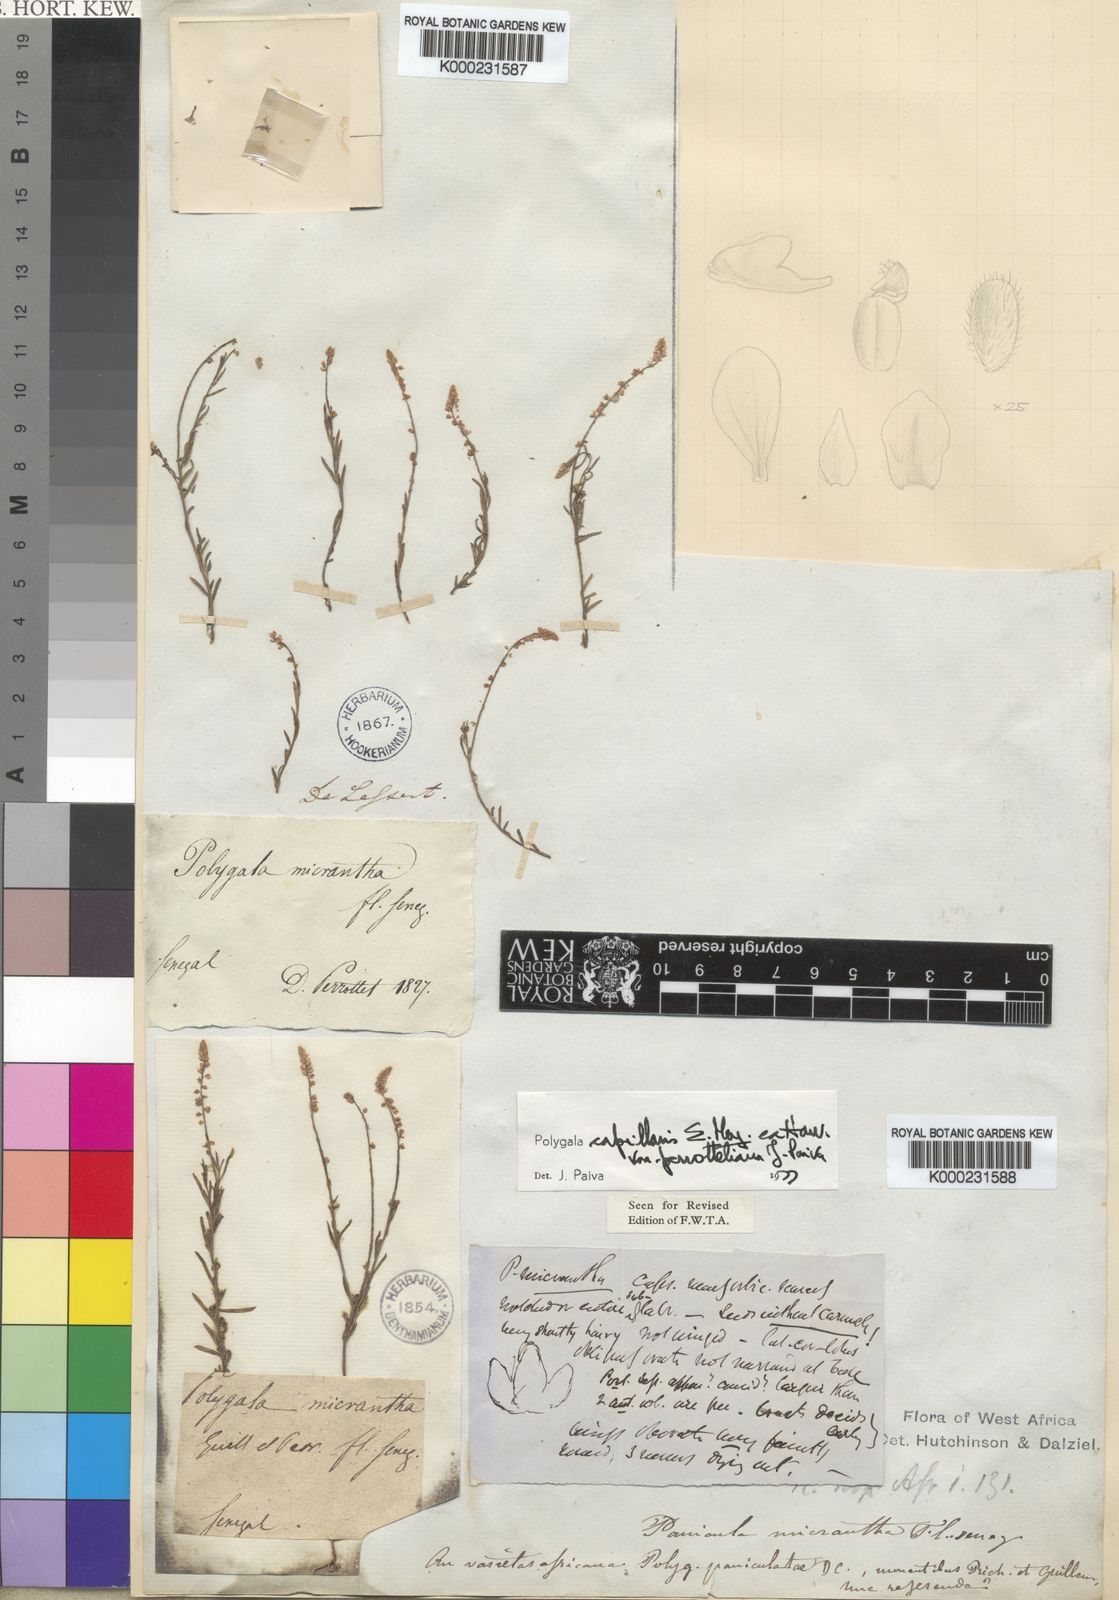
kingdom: Plantae
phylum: Tracheophyta
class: Magnoliopsida
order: Fabales
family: Polygalaceae
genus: Polygala
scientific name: Polygala capillaris
